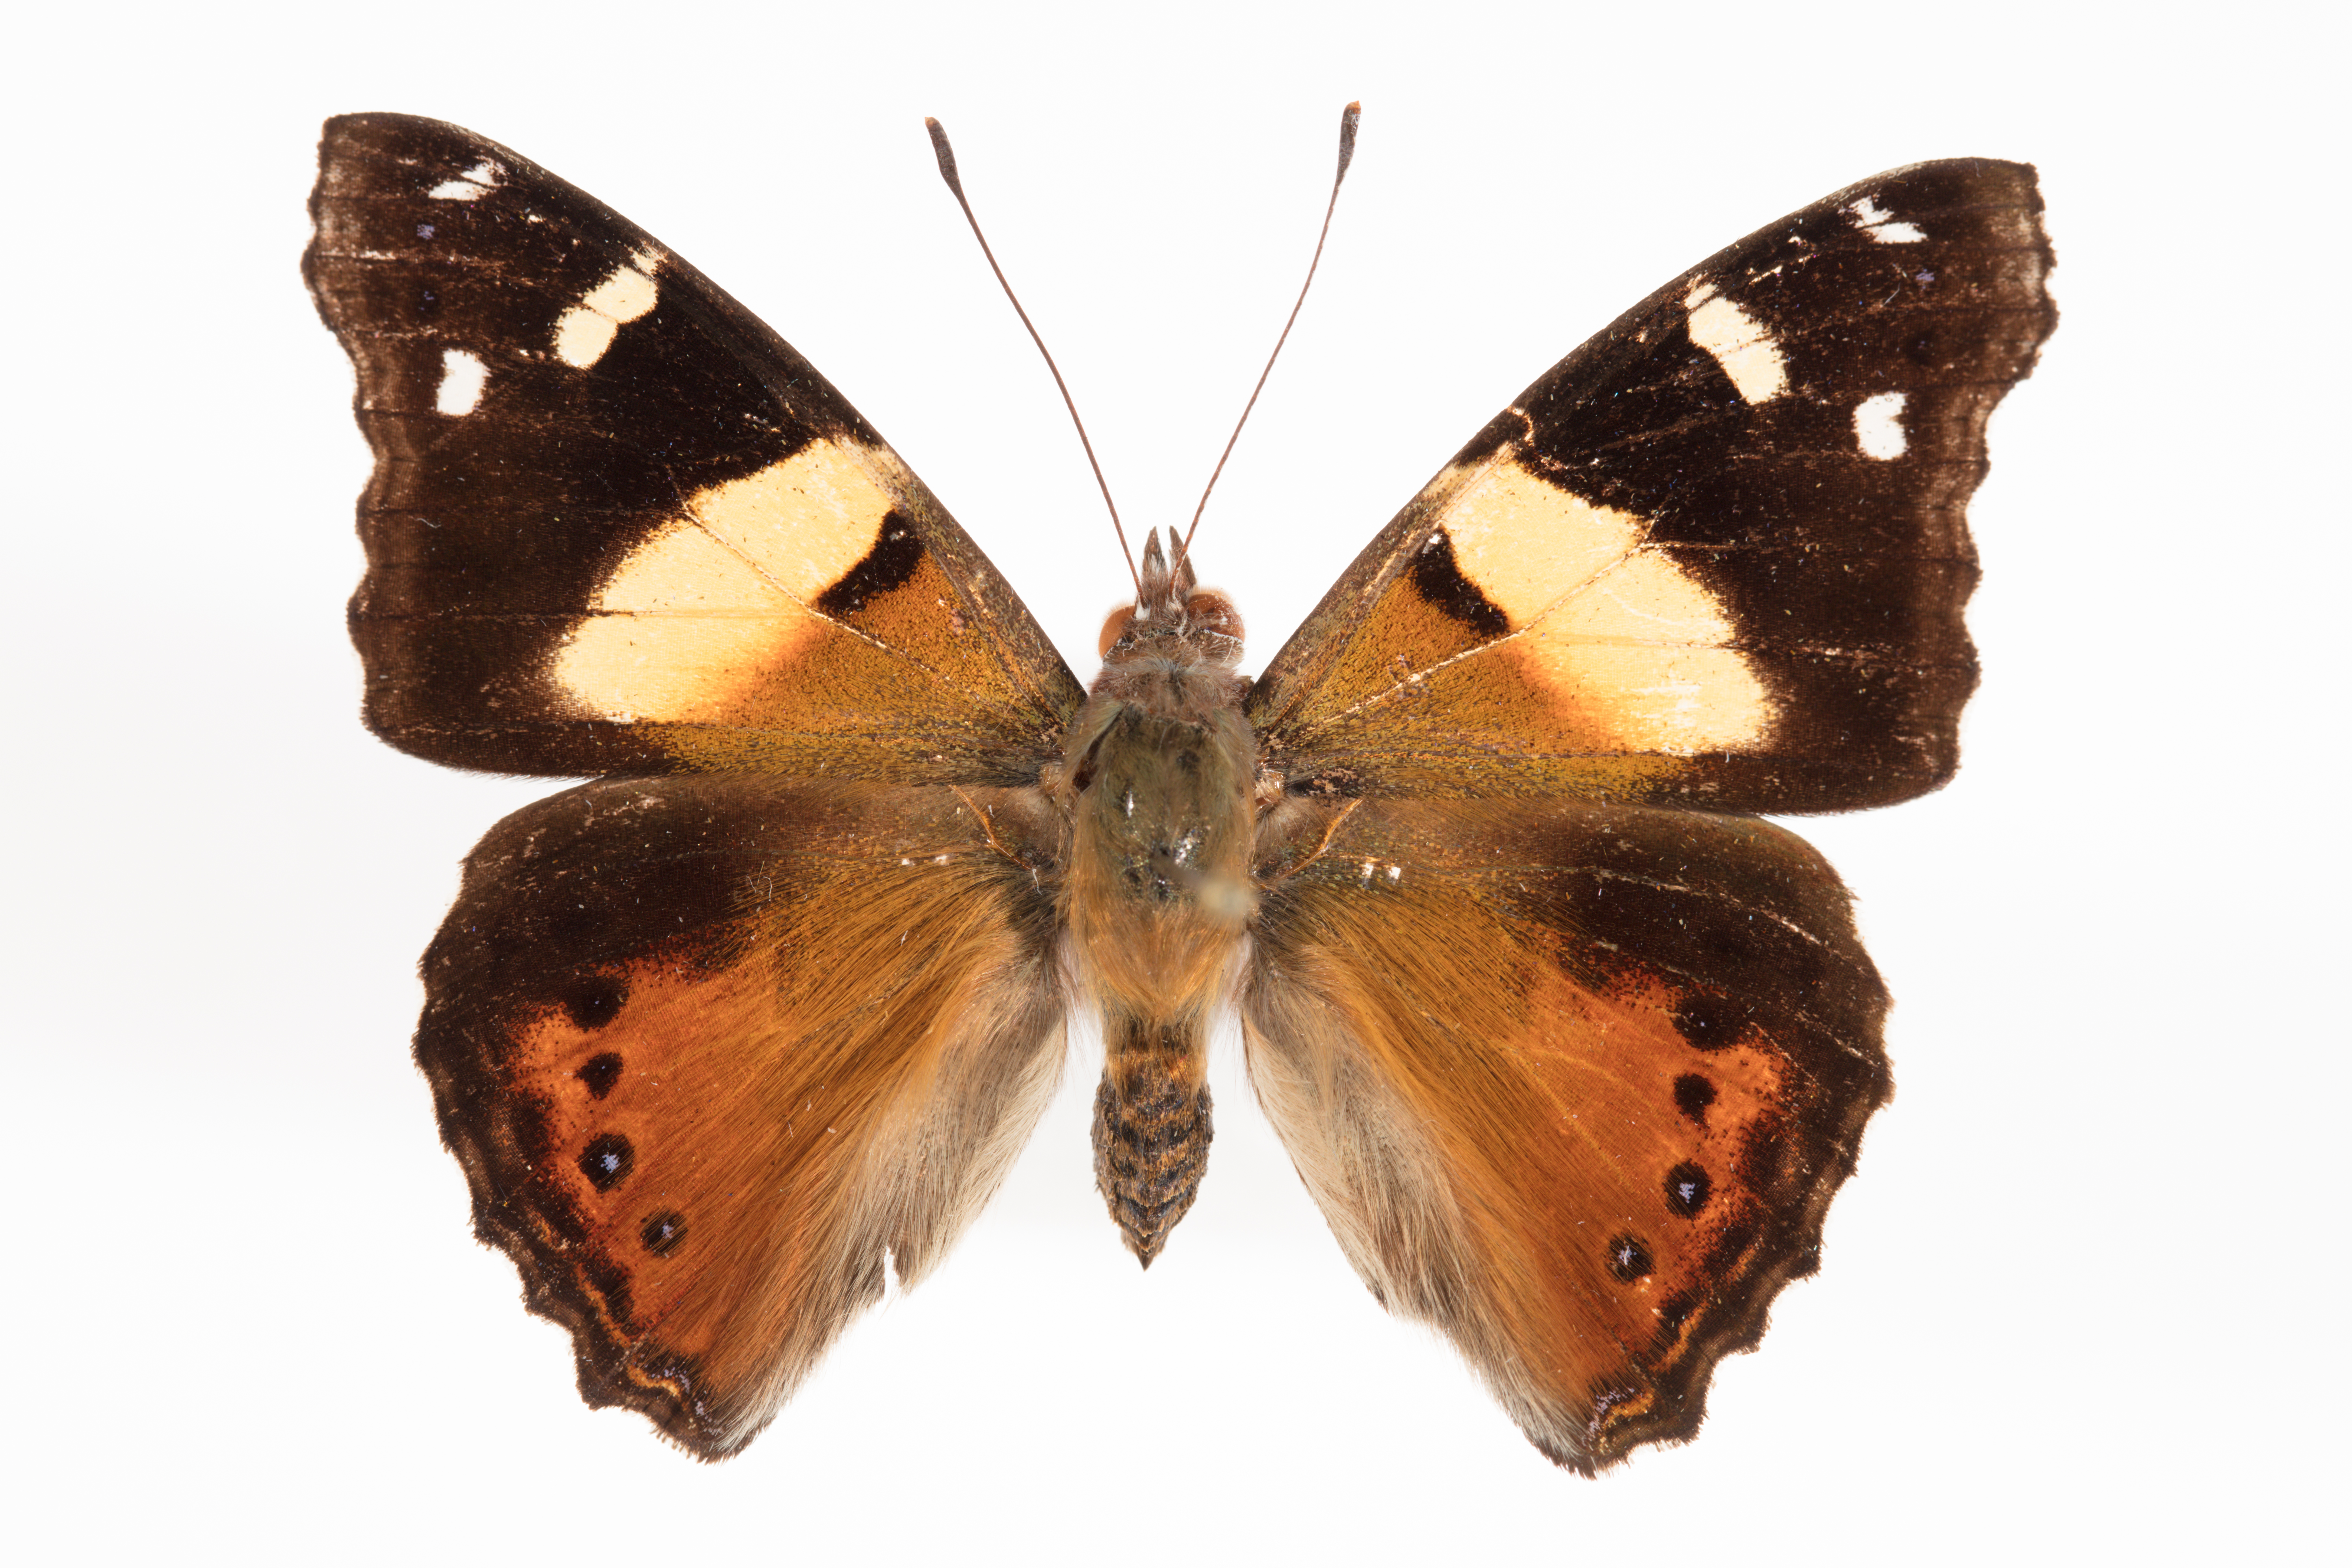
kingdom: Animalia
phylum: Arthropoda
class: Insecta
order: Lepidoptera
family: Nymphalidae
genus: Vanessa
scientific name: Vanessa itea
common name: Yellow admiral
